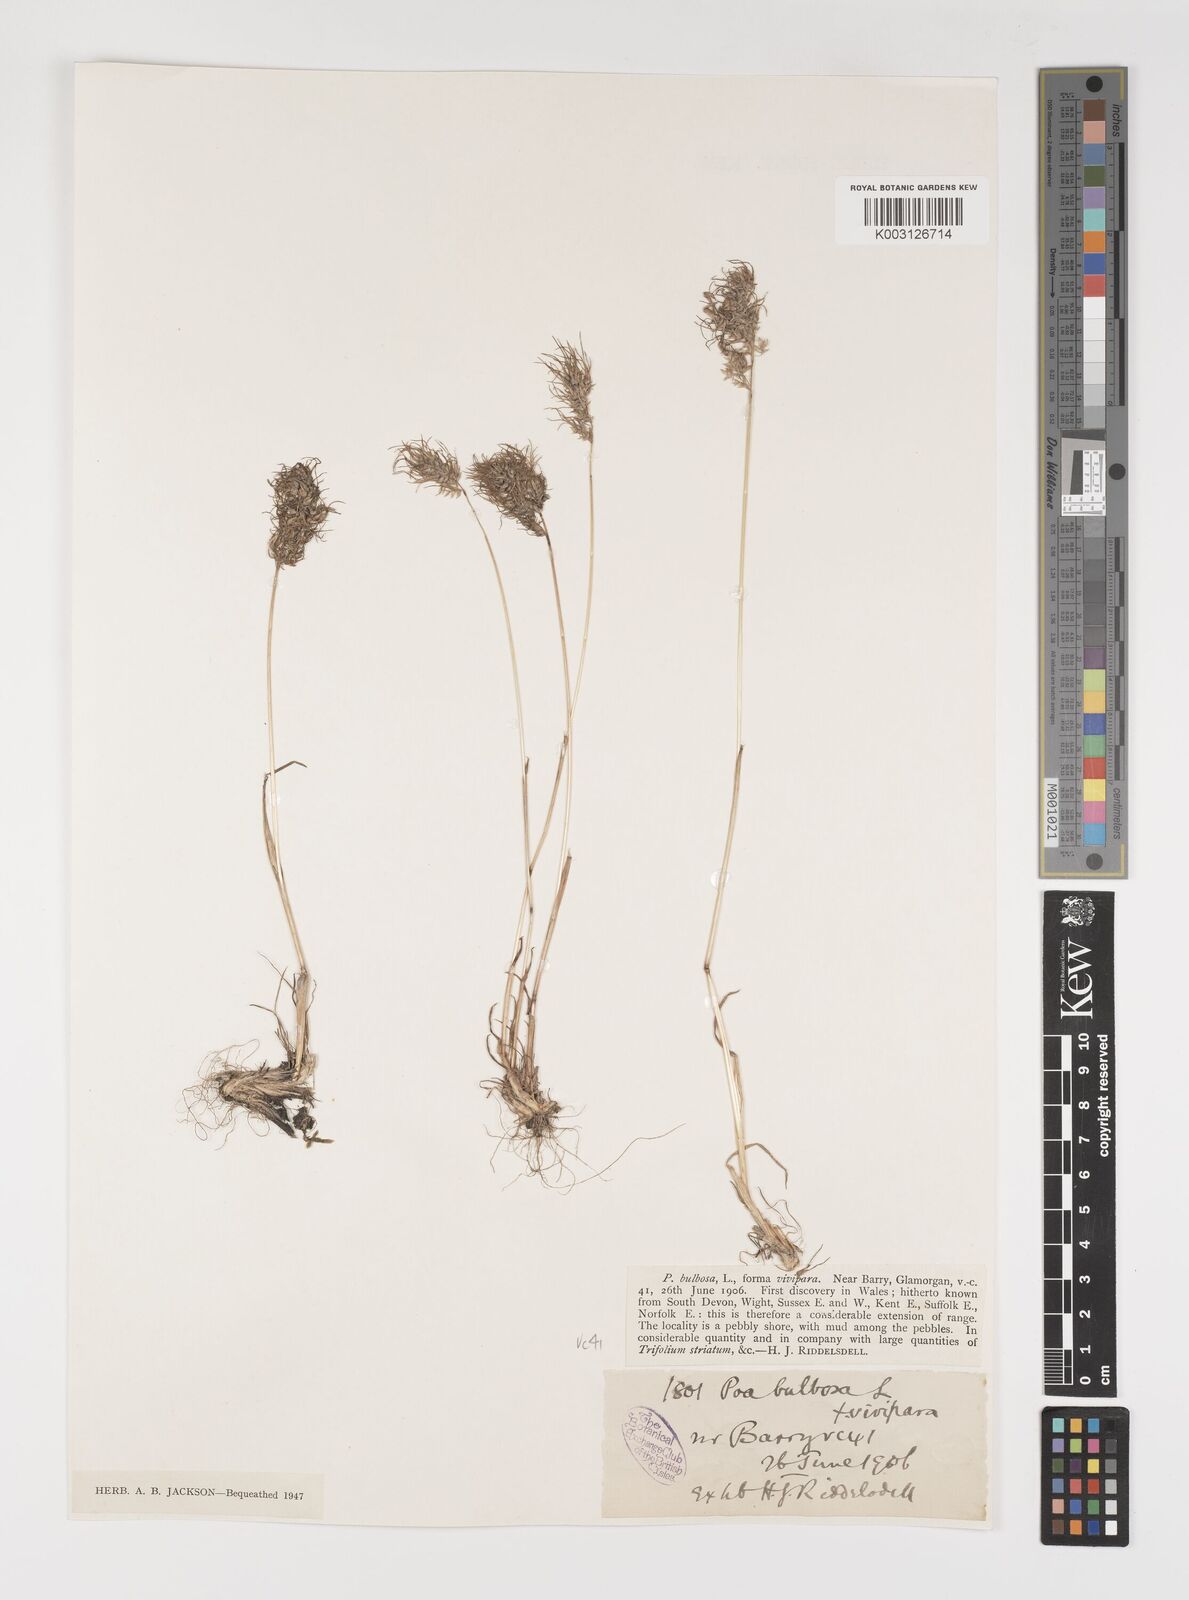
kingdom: Plantae
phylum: Tracheophyta
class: Liliopsida
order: Poales
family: Poaceae
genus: Poa
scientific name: Poa bulbosa
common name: Bulbous bluegrass
